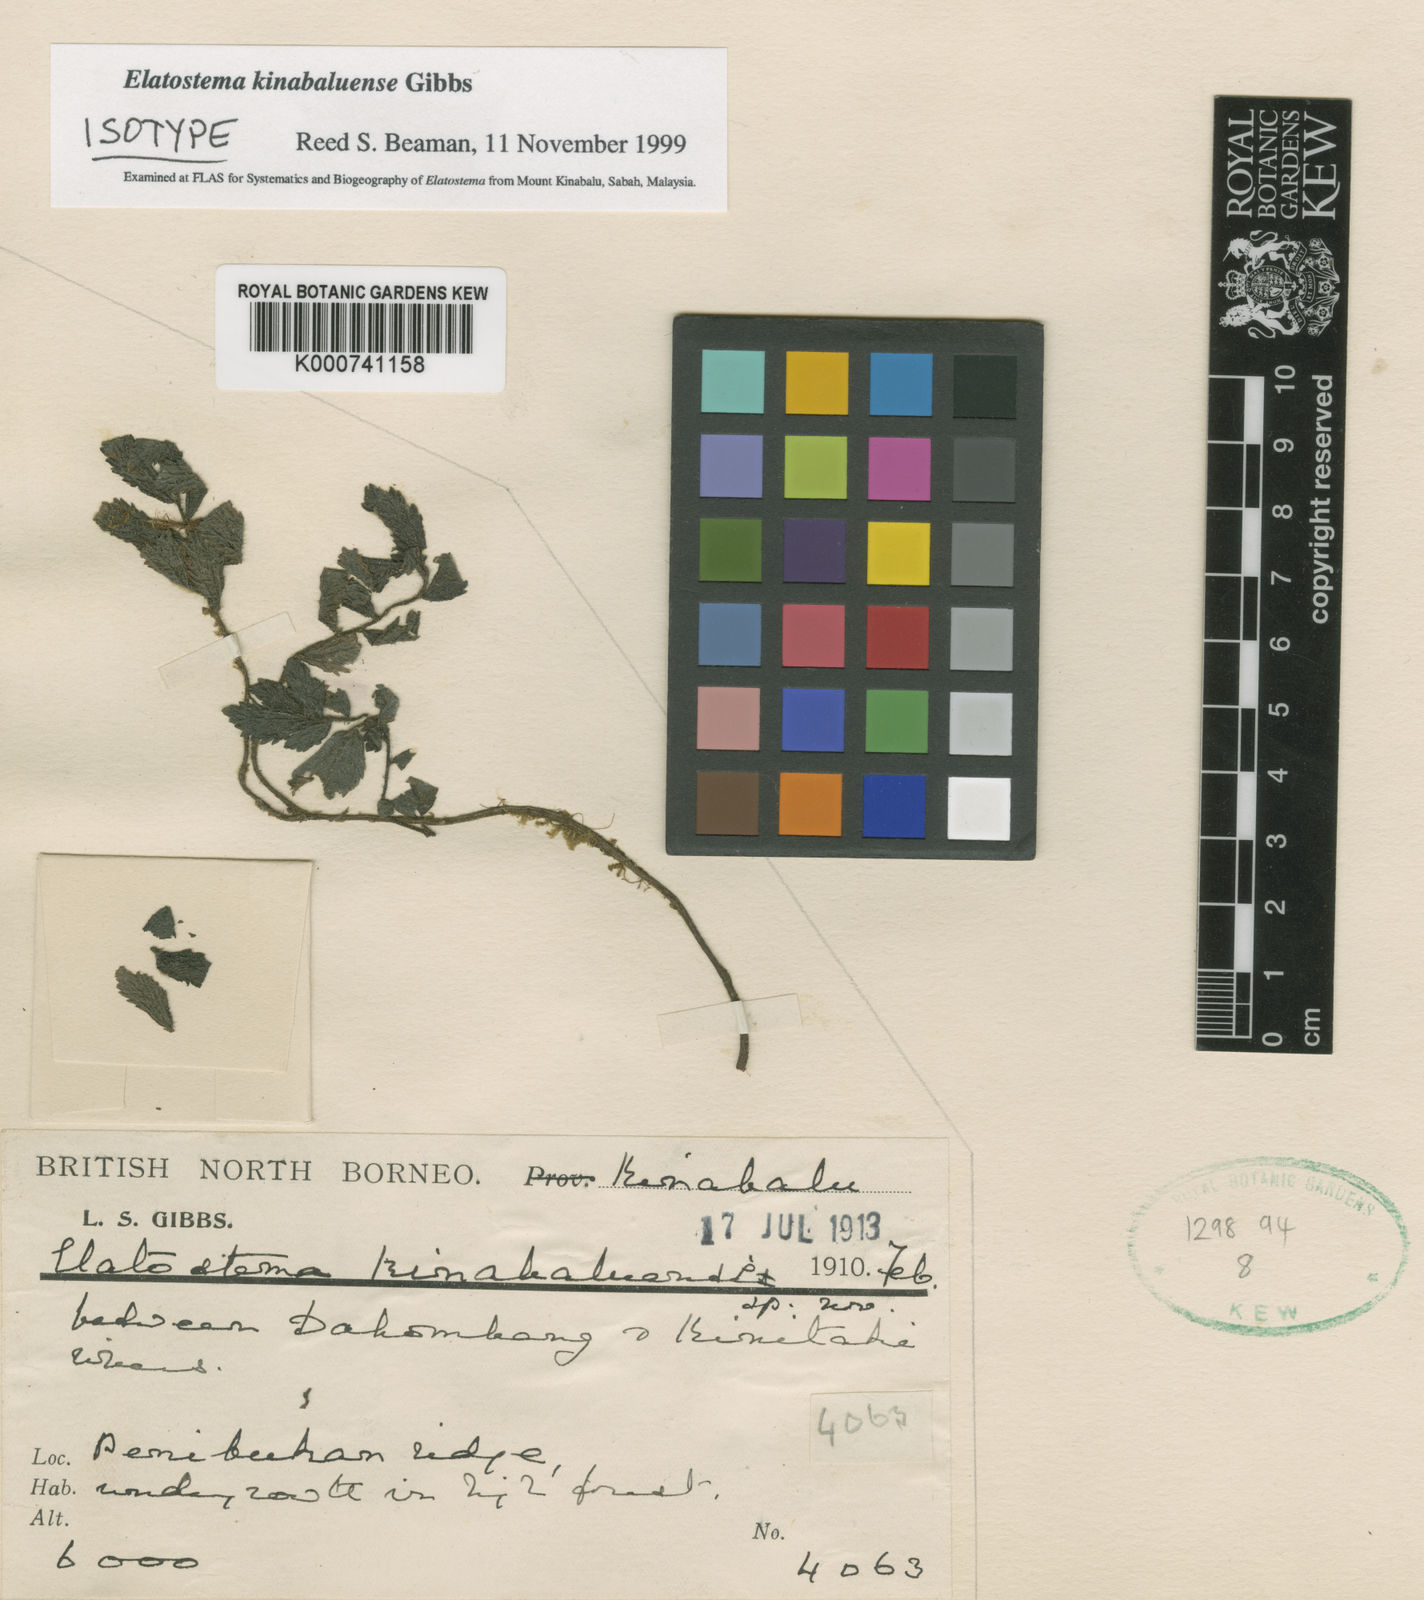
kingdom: Plantae
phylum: Tracheophyta
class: Magnoliopsida
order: Rosales
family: Urticaceae
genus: Elatostema
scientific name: Elatostema kinabaluense
